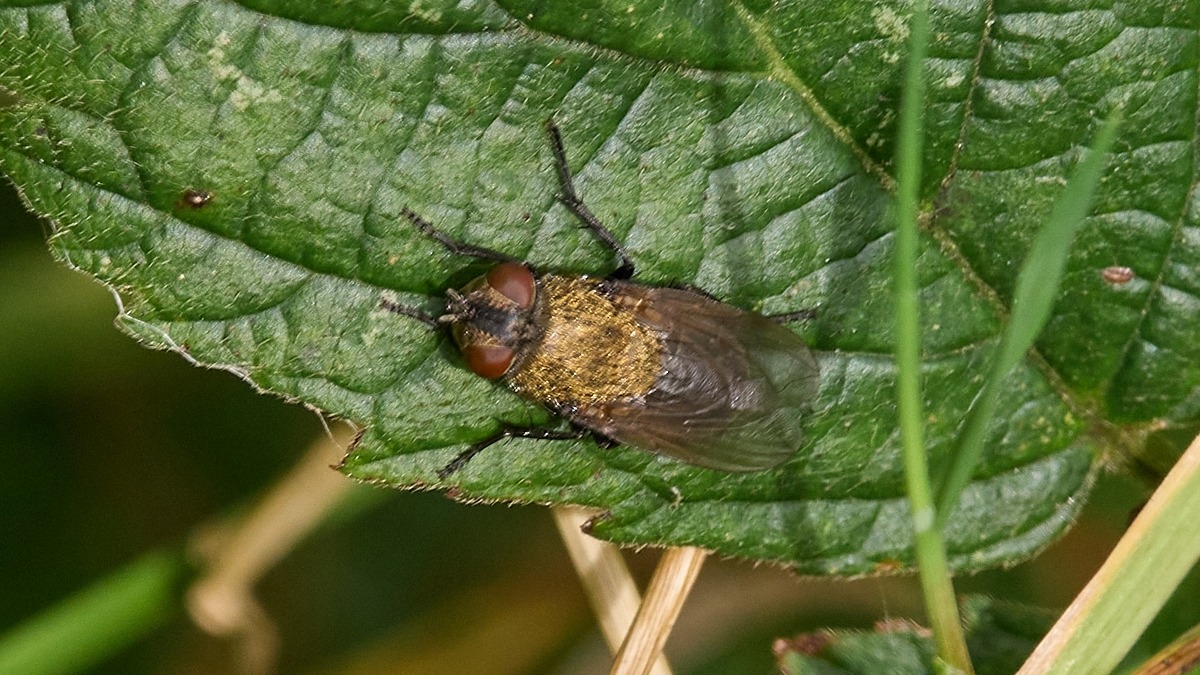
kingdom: Animalia
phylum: Arthropoda
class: Insecta
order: Diptera
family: Polleniidae
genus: Pollenia
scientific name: Pollenia
